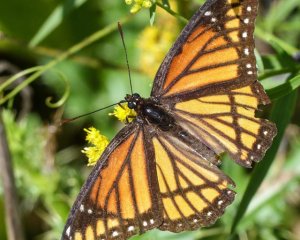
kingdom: Animalia
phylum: Arthropoda
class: Insecta
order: Lepidoptera
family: Nymphalidae
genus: Limenitis
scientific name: Limenitis archippus
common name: Viceroy
